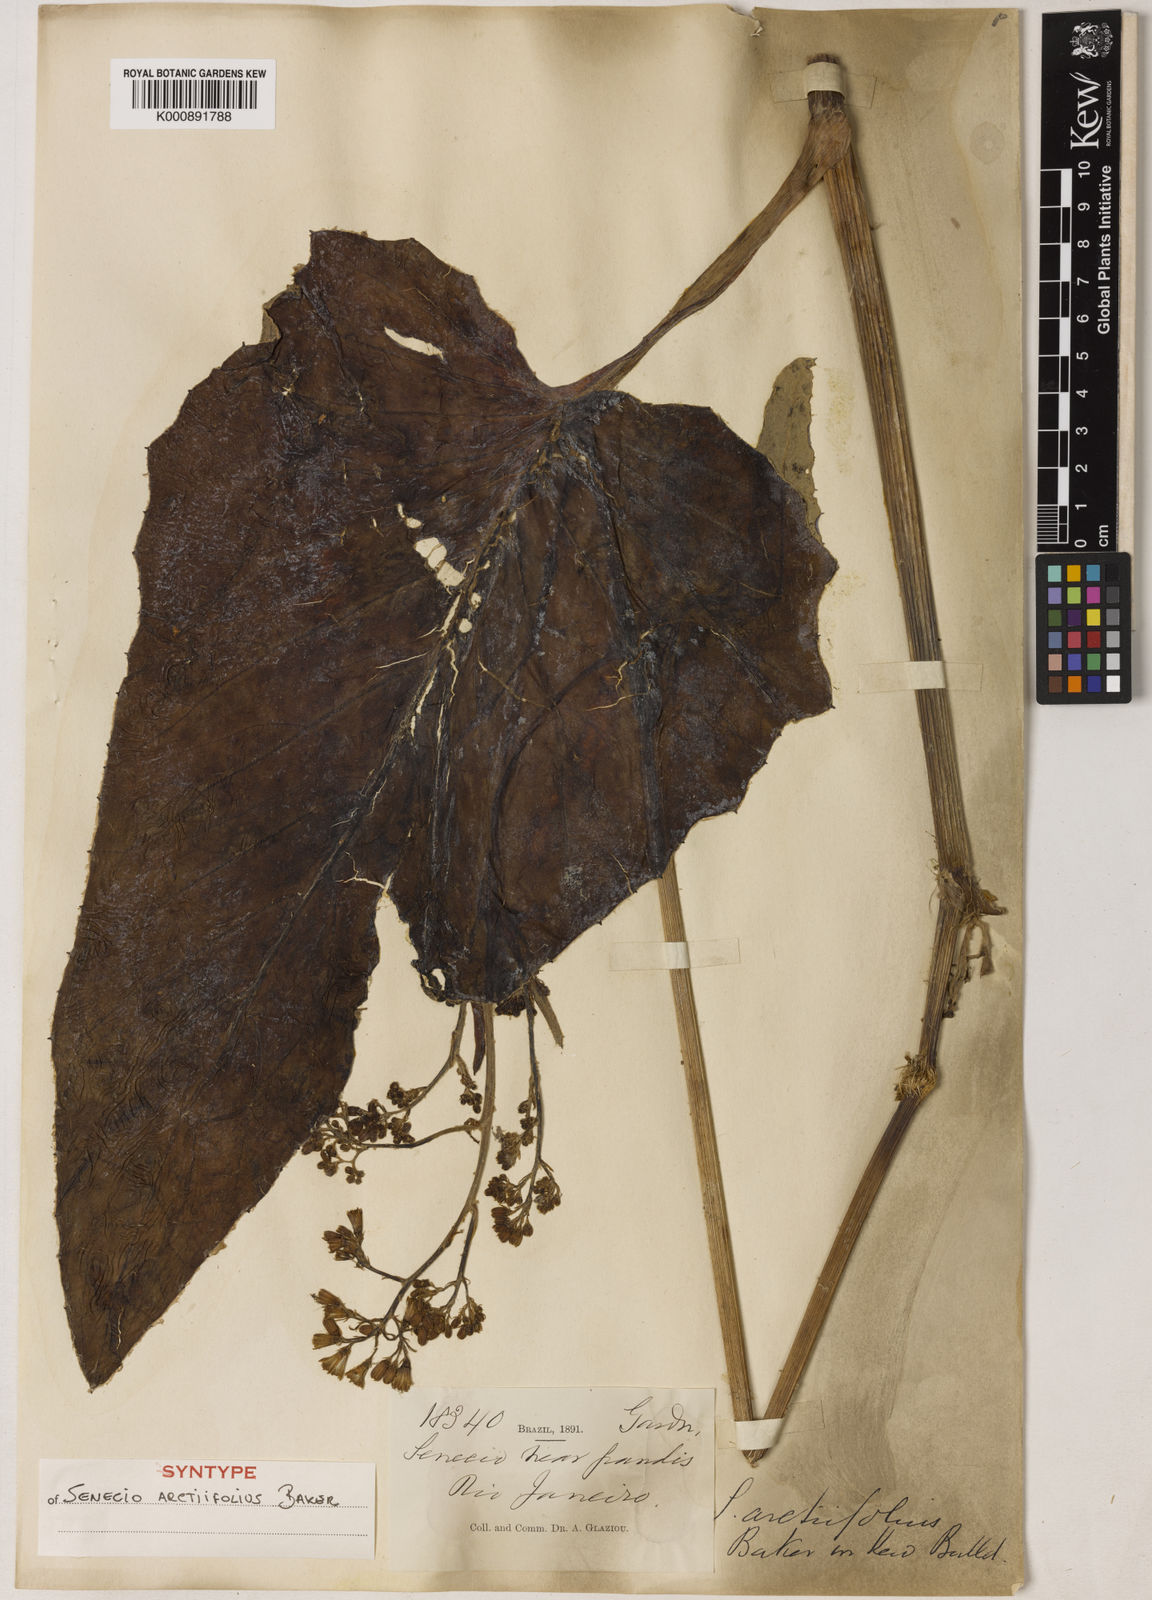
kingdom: Plantae
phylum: Tracheophyta
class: Magnoliopsida
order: Asterales
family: Asteraceae
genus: Senecio
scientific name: Senecio grandis
